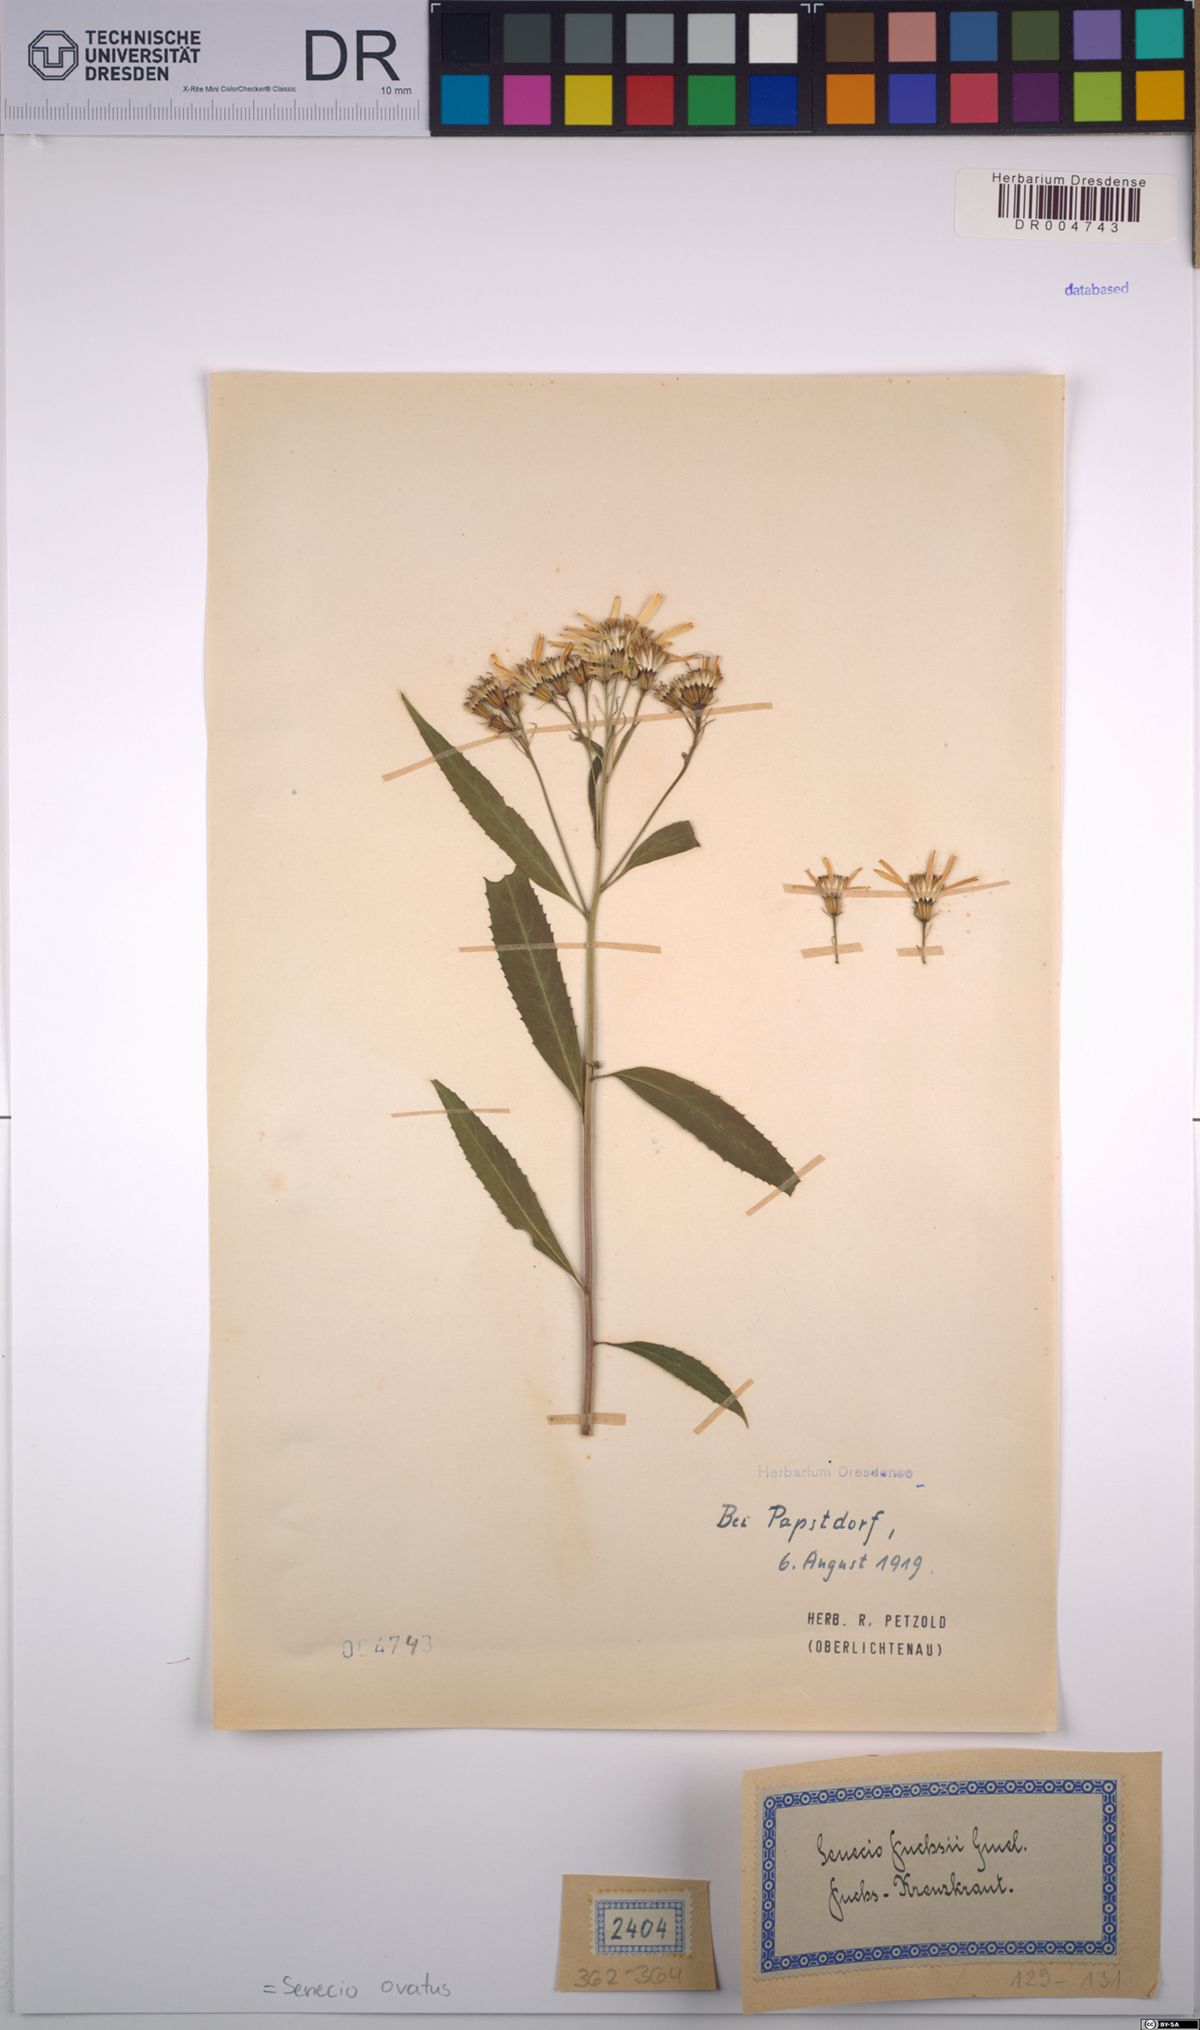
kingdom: Plantae
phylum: Tracheophyta
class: Magnoliopsida
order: Asterales
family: Asteraceae
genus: Senecio
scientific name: Senecio ovatus
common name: Wood ragwort
